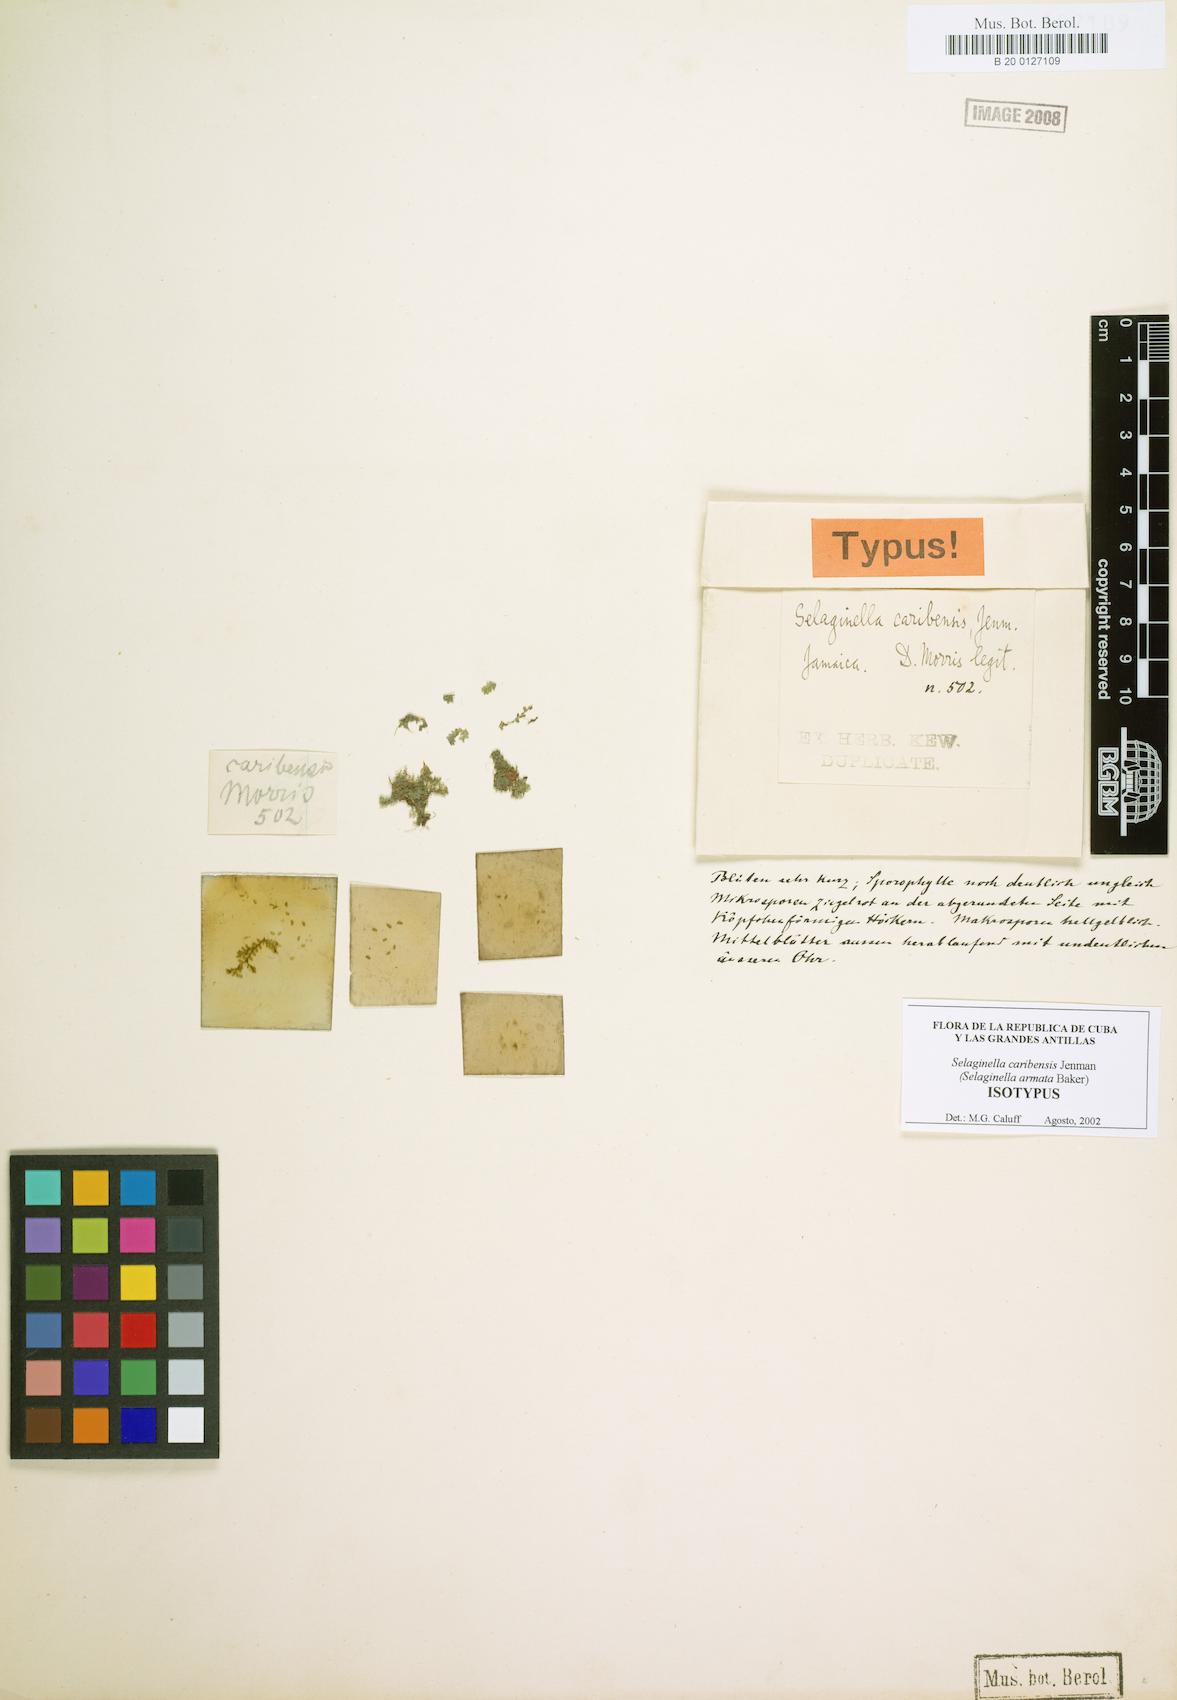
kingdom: Plantae
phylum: Tracheophyta
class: Lycopodiopsida
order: Selaginellales
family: Selaginellaceae
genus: Selaginella
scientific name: Selaginella armata
